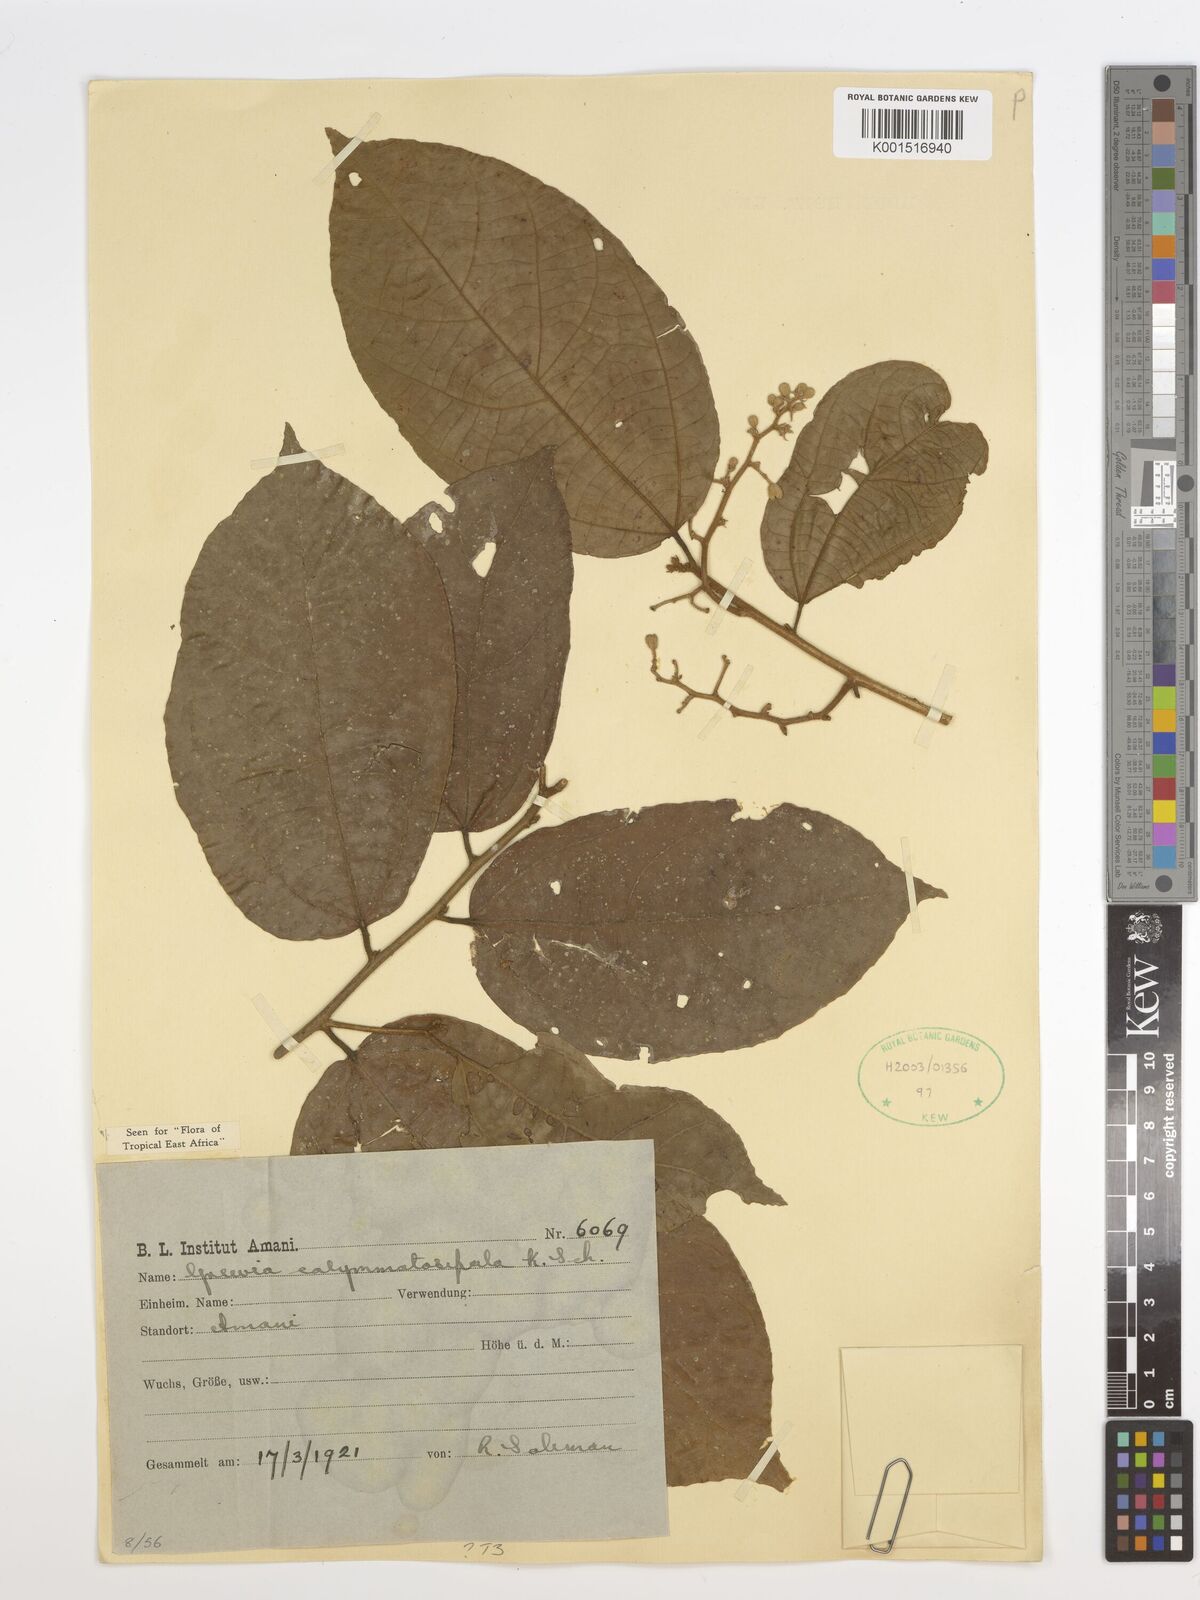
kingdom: Plantae
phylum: Tracheophyta
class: Magnoliopsida
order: Malvales
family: Malvaceae
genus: Microcos
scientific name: Microcos calymmatosepala
